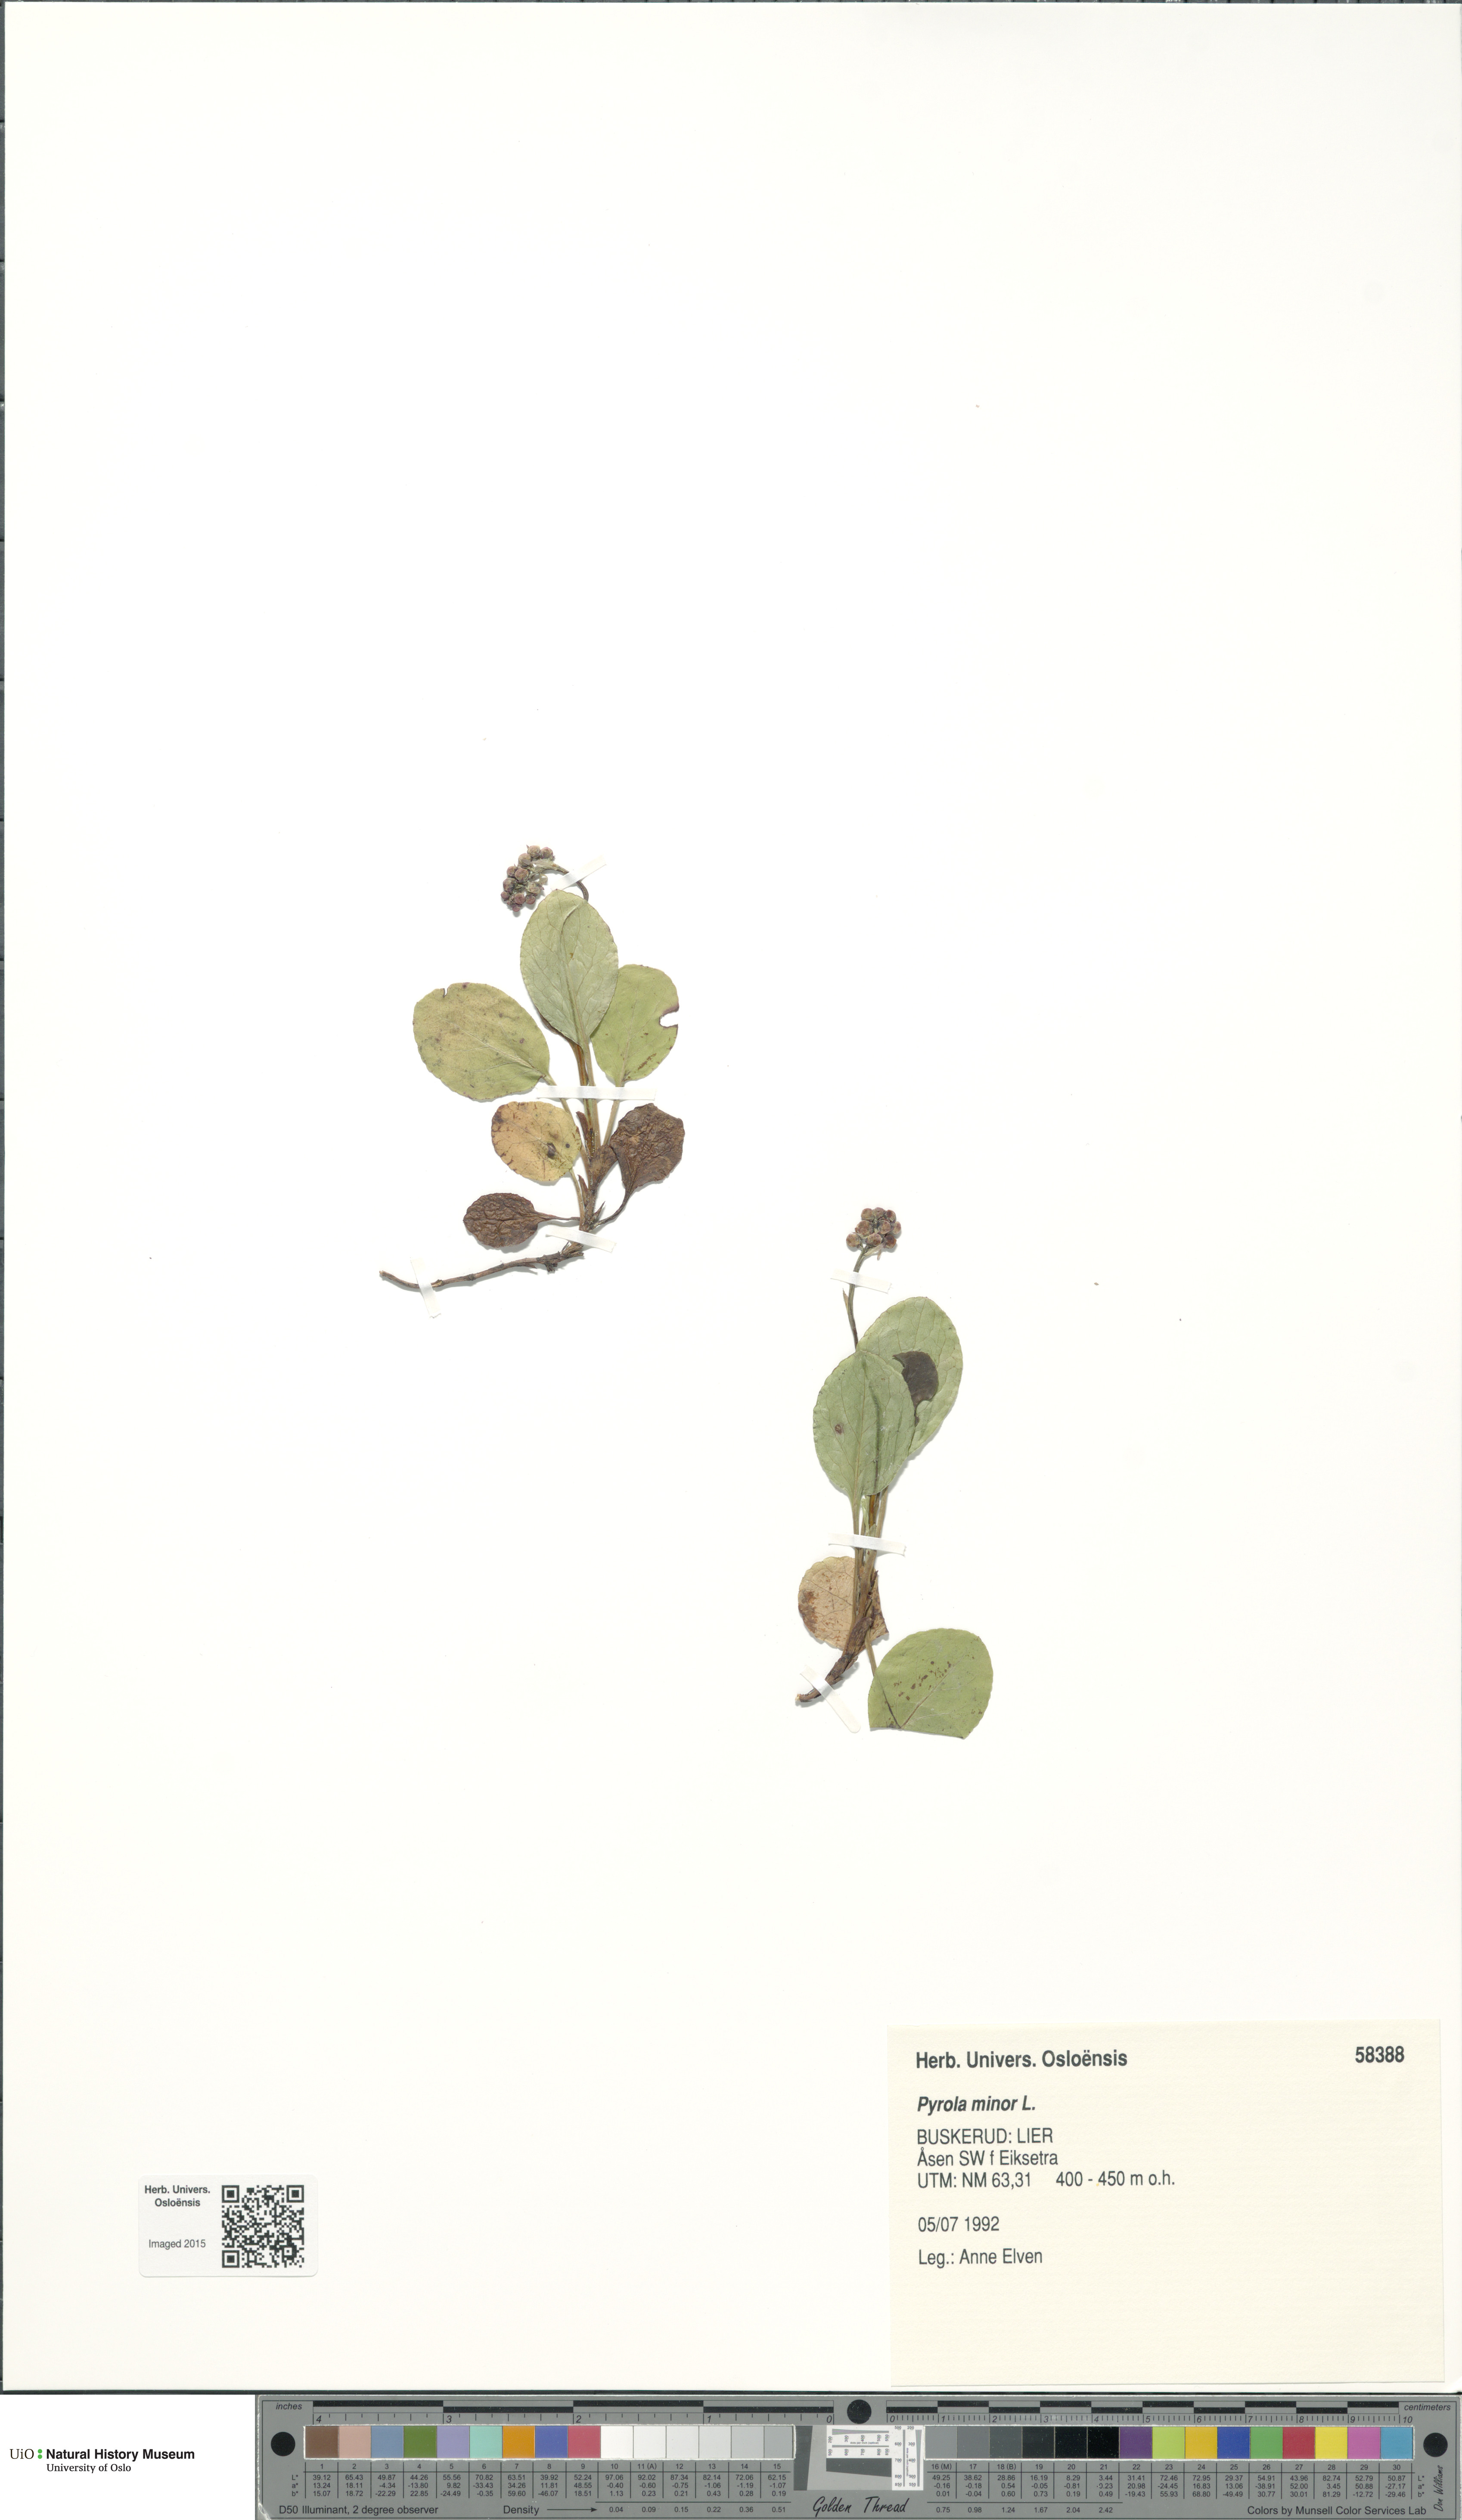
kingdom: Plantae
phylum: Tracheophyta
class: Magnoliopsida
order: Ericales
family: Ericaceae
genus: Pyrola
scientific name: Pyrola minor
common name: Common wintergreen
